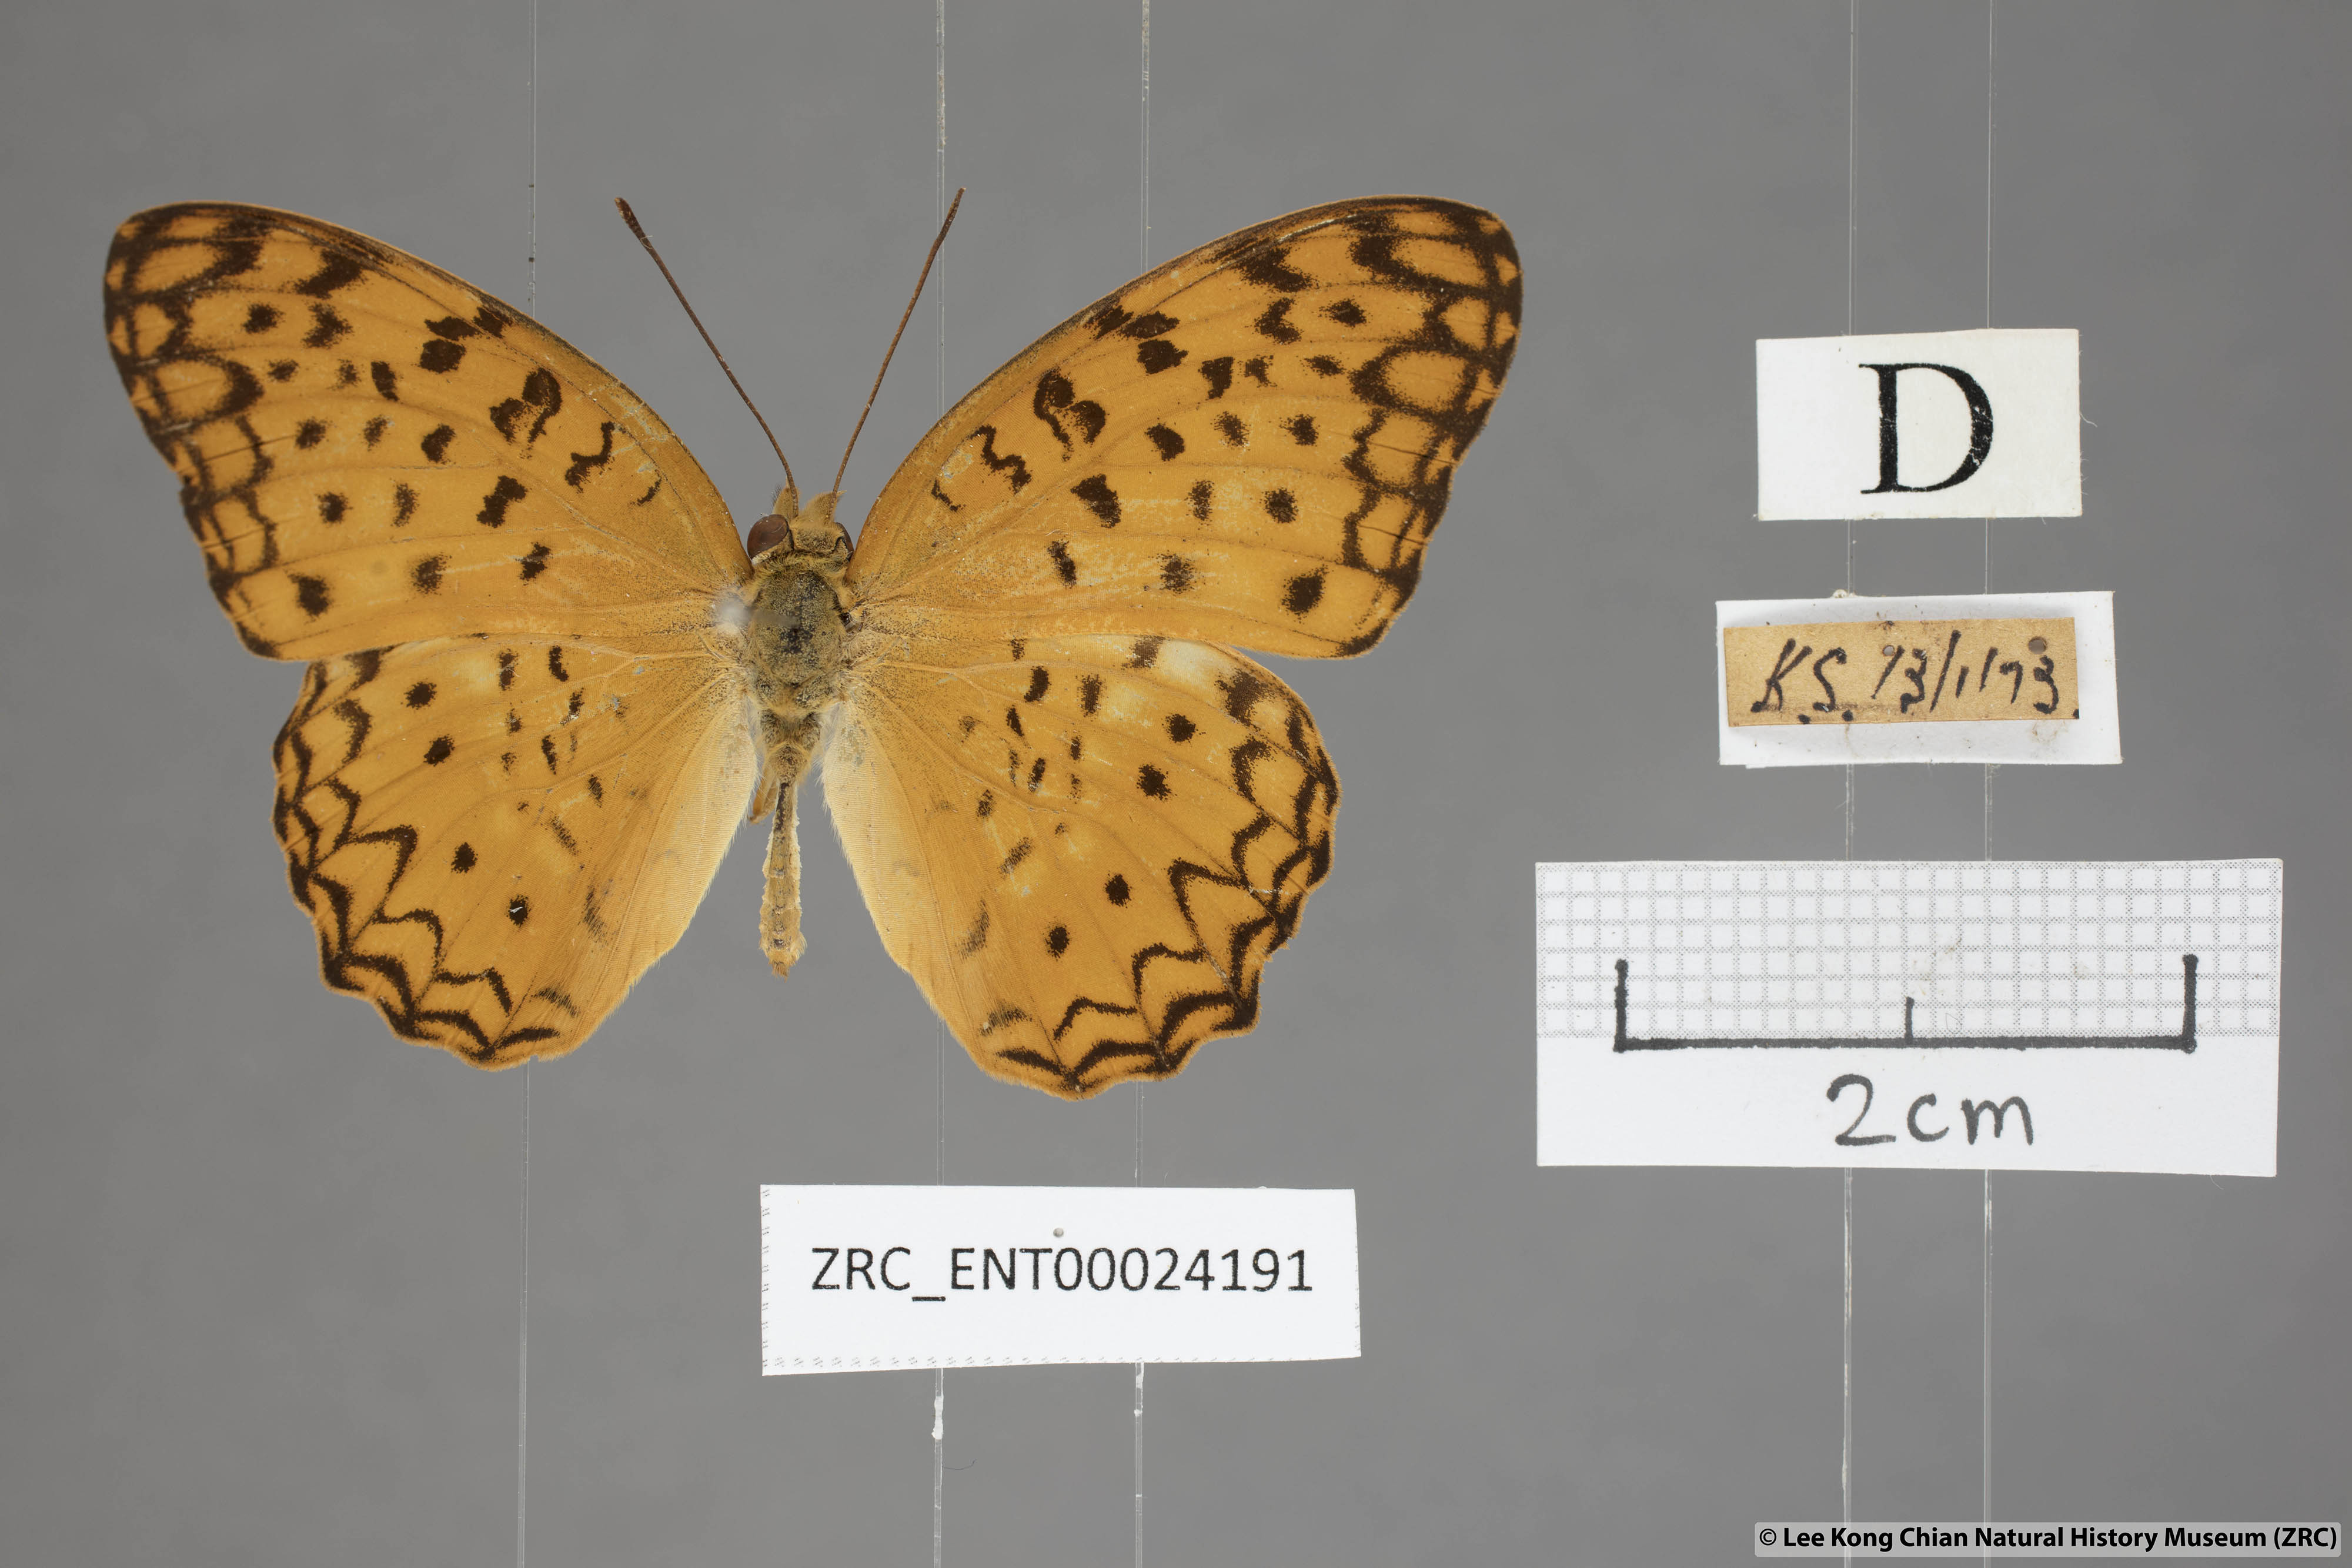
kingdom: Animalia
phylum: Arthropoda
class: Insecta
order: Lepidoptera
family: Nymphalidae
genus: Phalanta
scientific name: Phalanta phalantha
